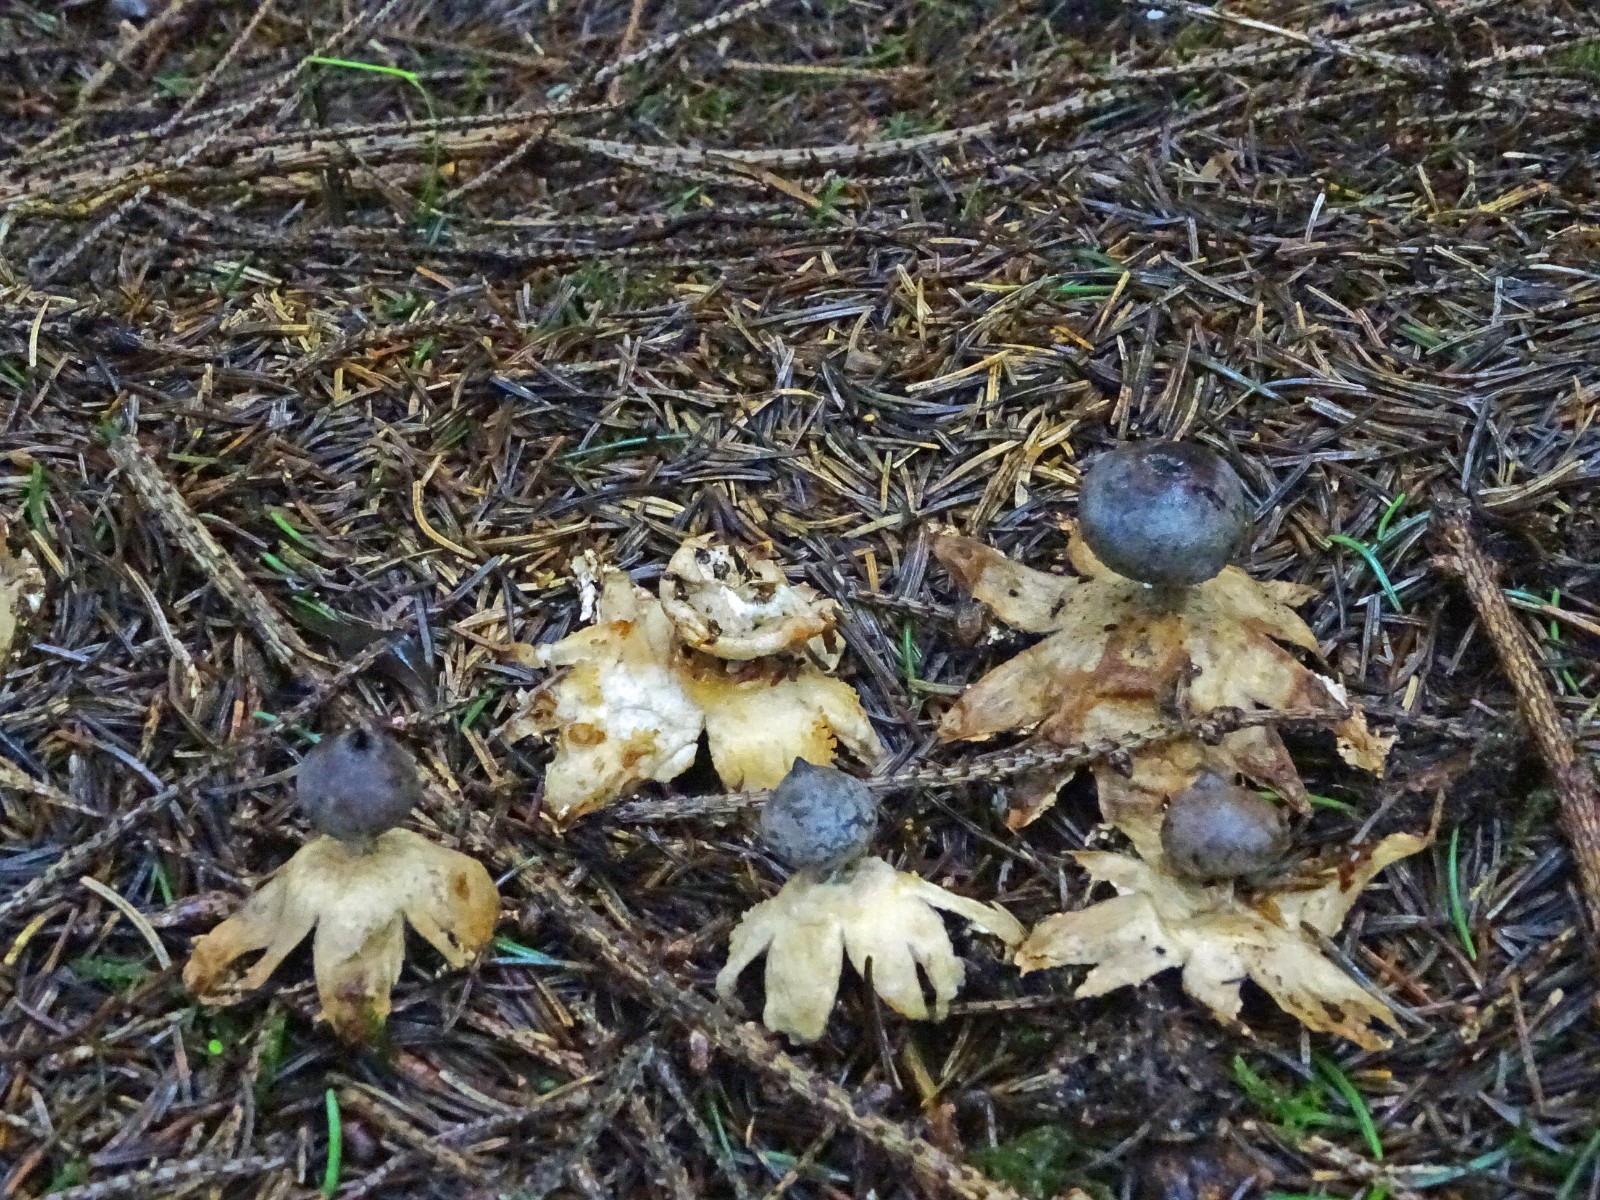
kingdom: Fungi
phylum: Basidiomycota
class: Agaricomycetes
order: Geastrales
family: Geastraceae
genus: Geastrum
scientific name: Geastrum pectinatum
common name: stilket stjernebold
